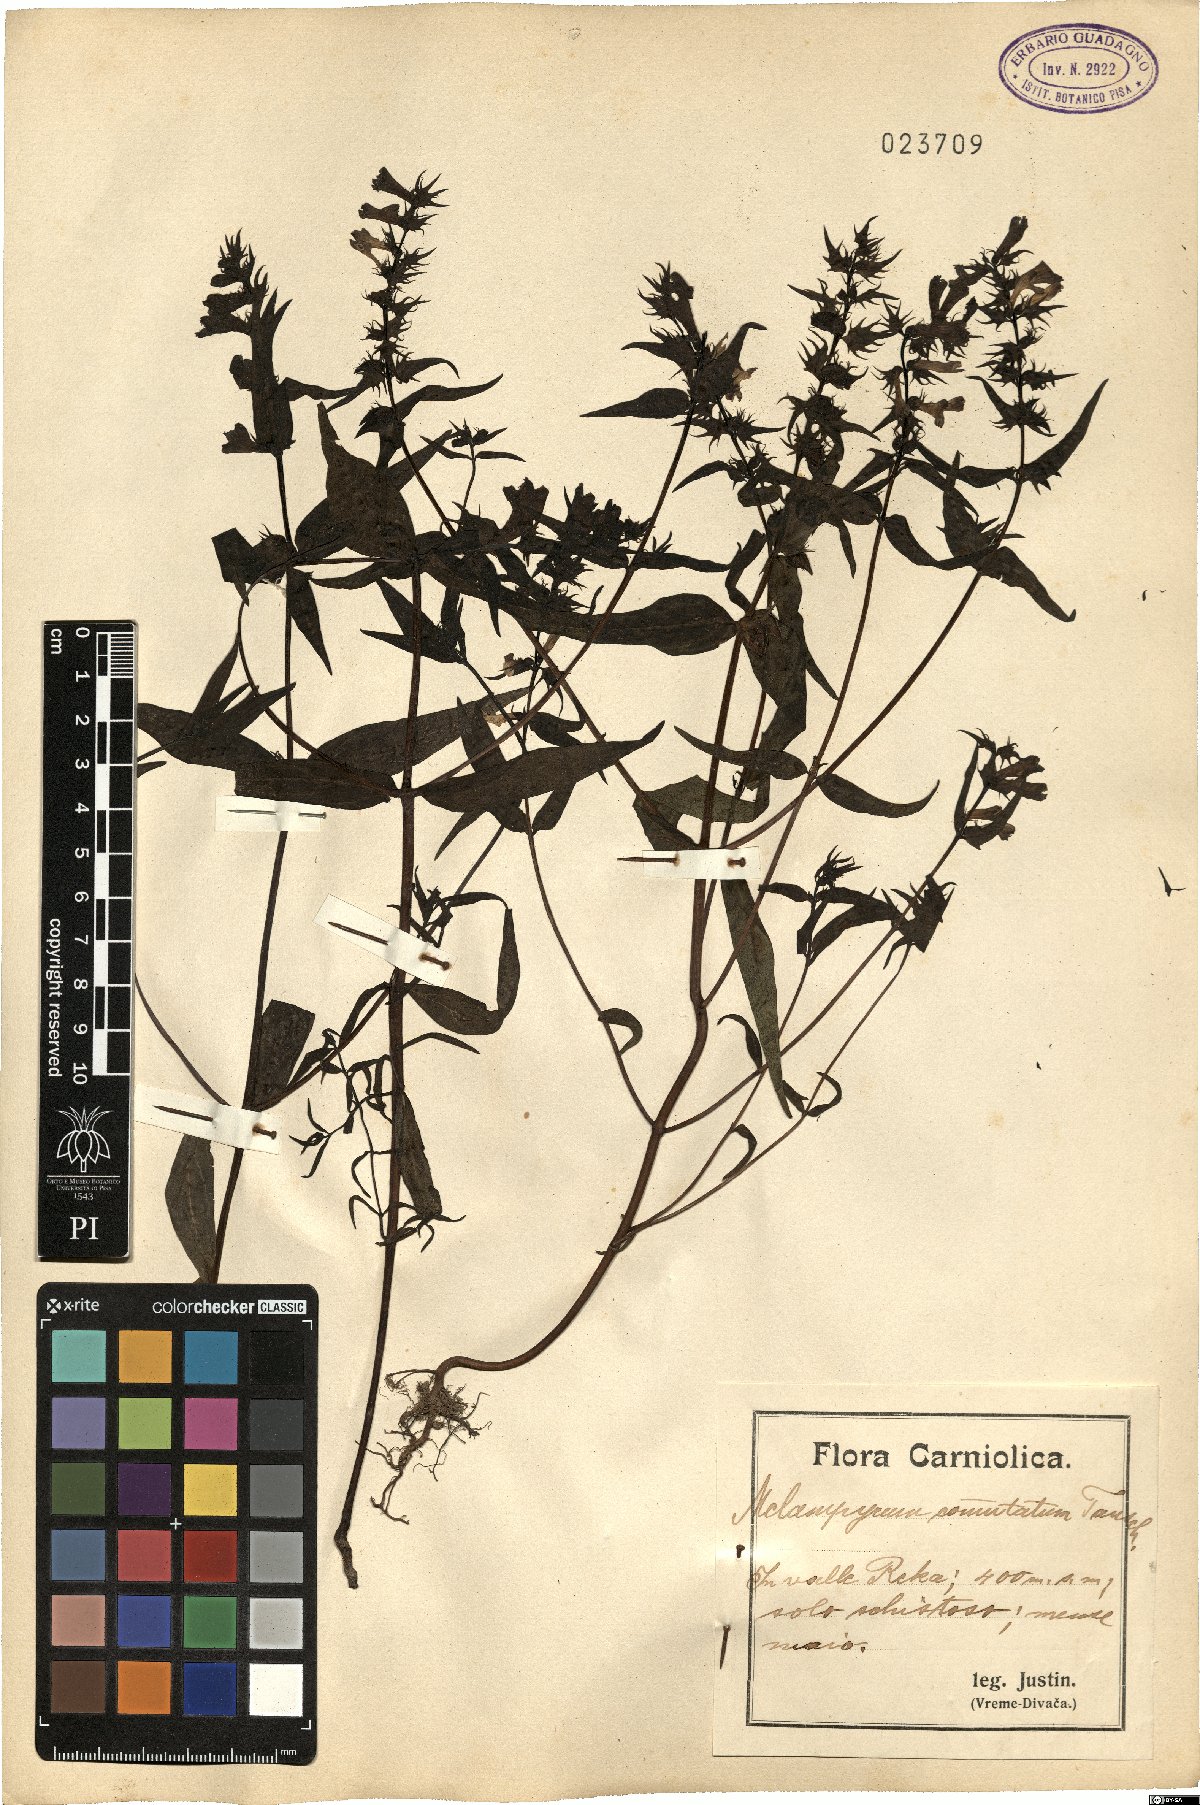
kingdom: Plantae
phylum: Tracheophyta
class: Magnoliopsida
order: Lamiales
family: Orobanchaceae
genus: Melampyrum
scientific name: Melampyrum pratense
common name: Common cow-wheat
